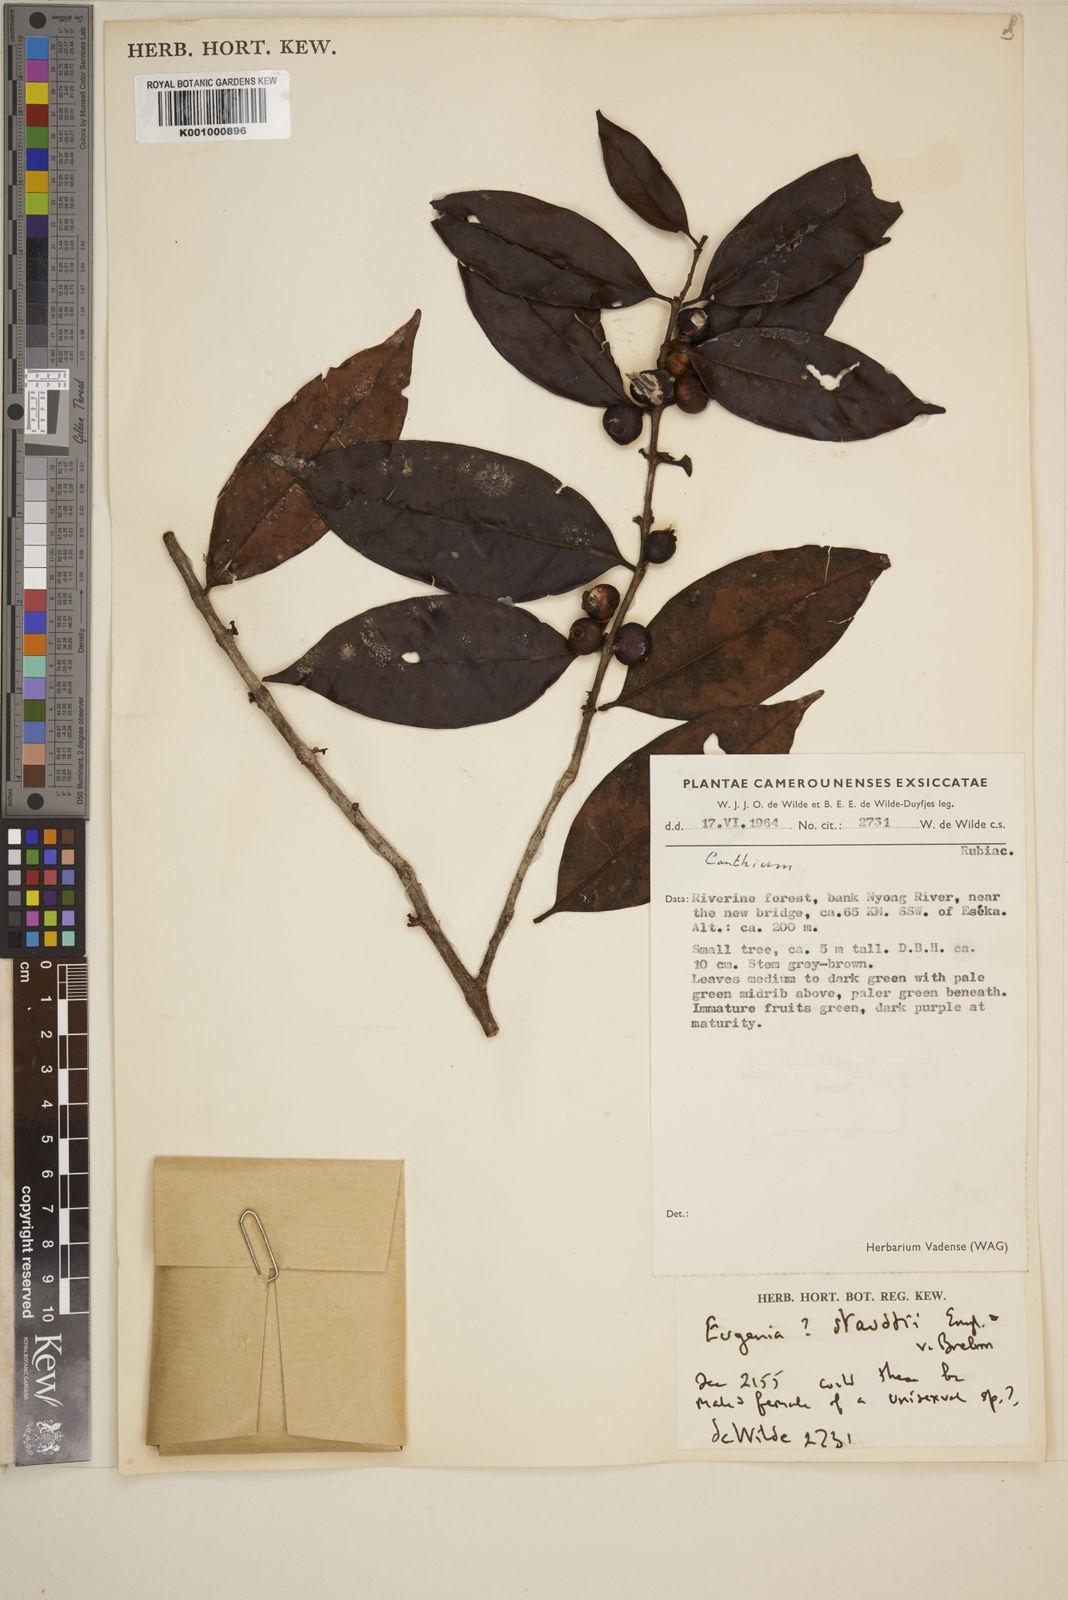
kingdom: Plantae
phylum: Tracheophyta
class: Magnoliopsida
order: Myrtales
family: Myrtaceae
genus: Eugenia
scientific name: Eugenia staudtii
